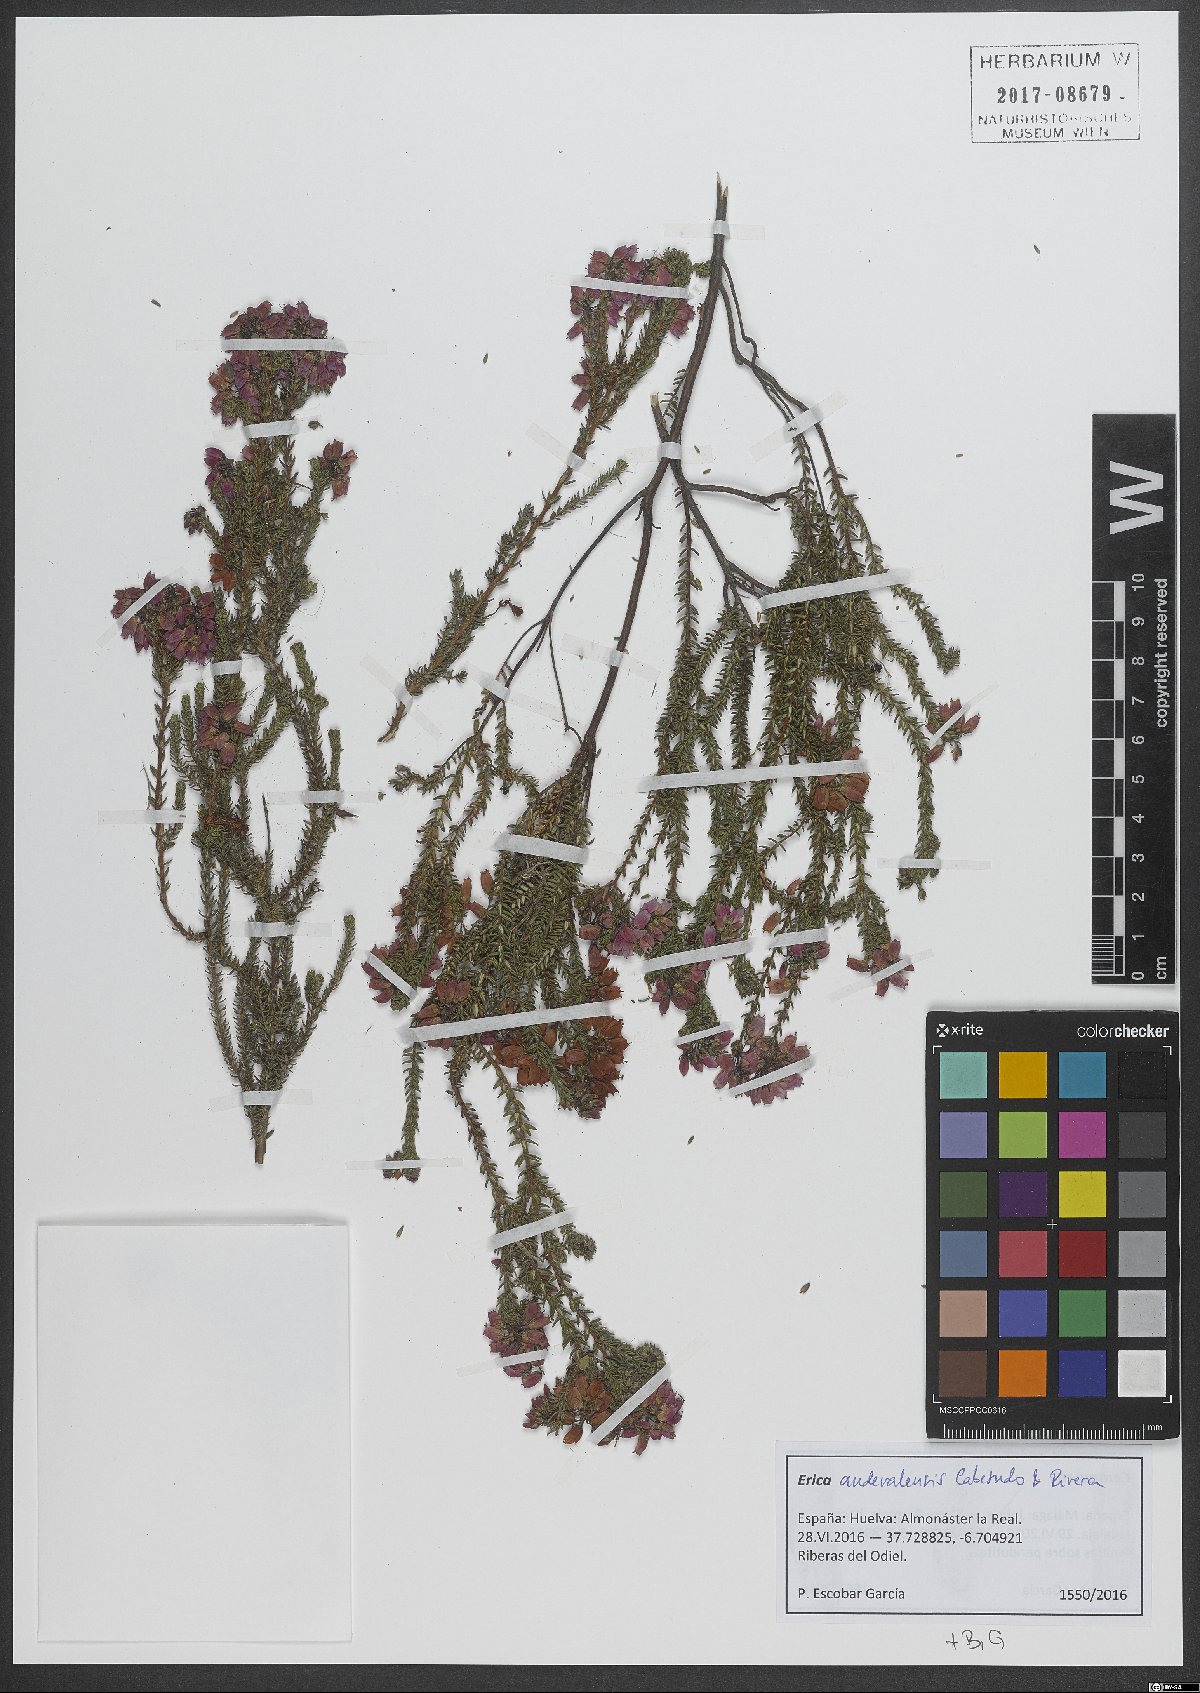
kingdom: Plantae
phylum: Tracheophyta
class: Magnoliopsida
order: Ericales
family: Ericaceae
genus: Erica
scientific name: Erica mackayana
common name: Mackay's heath
